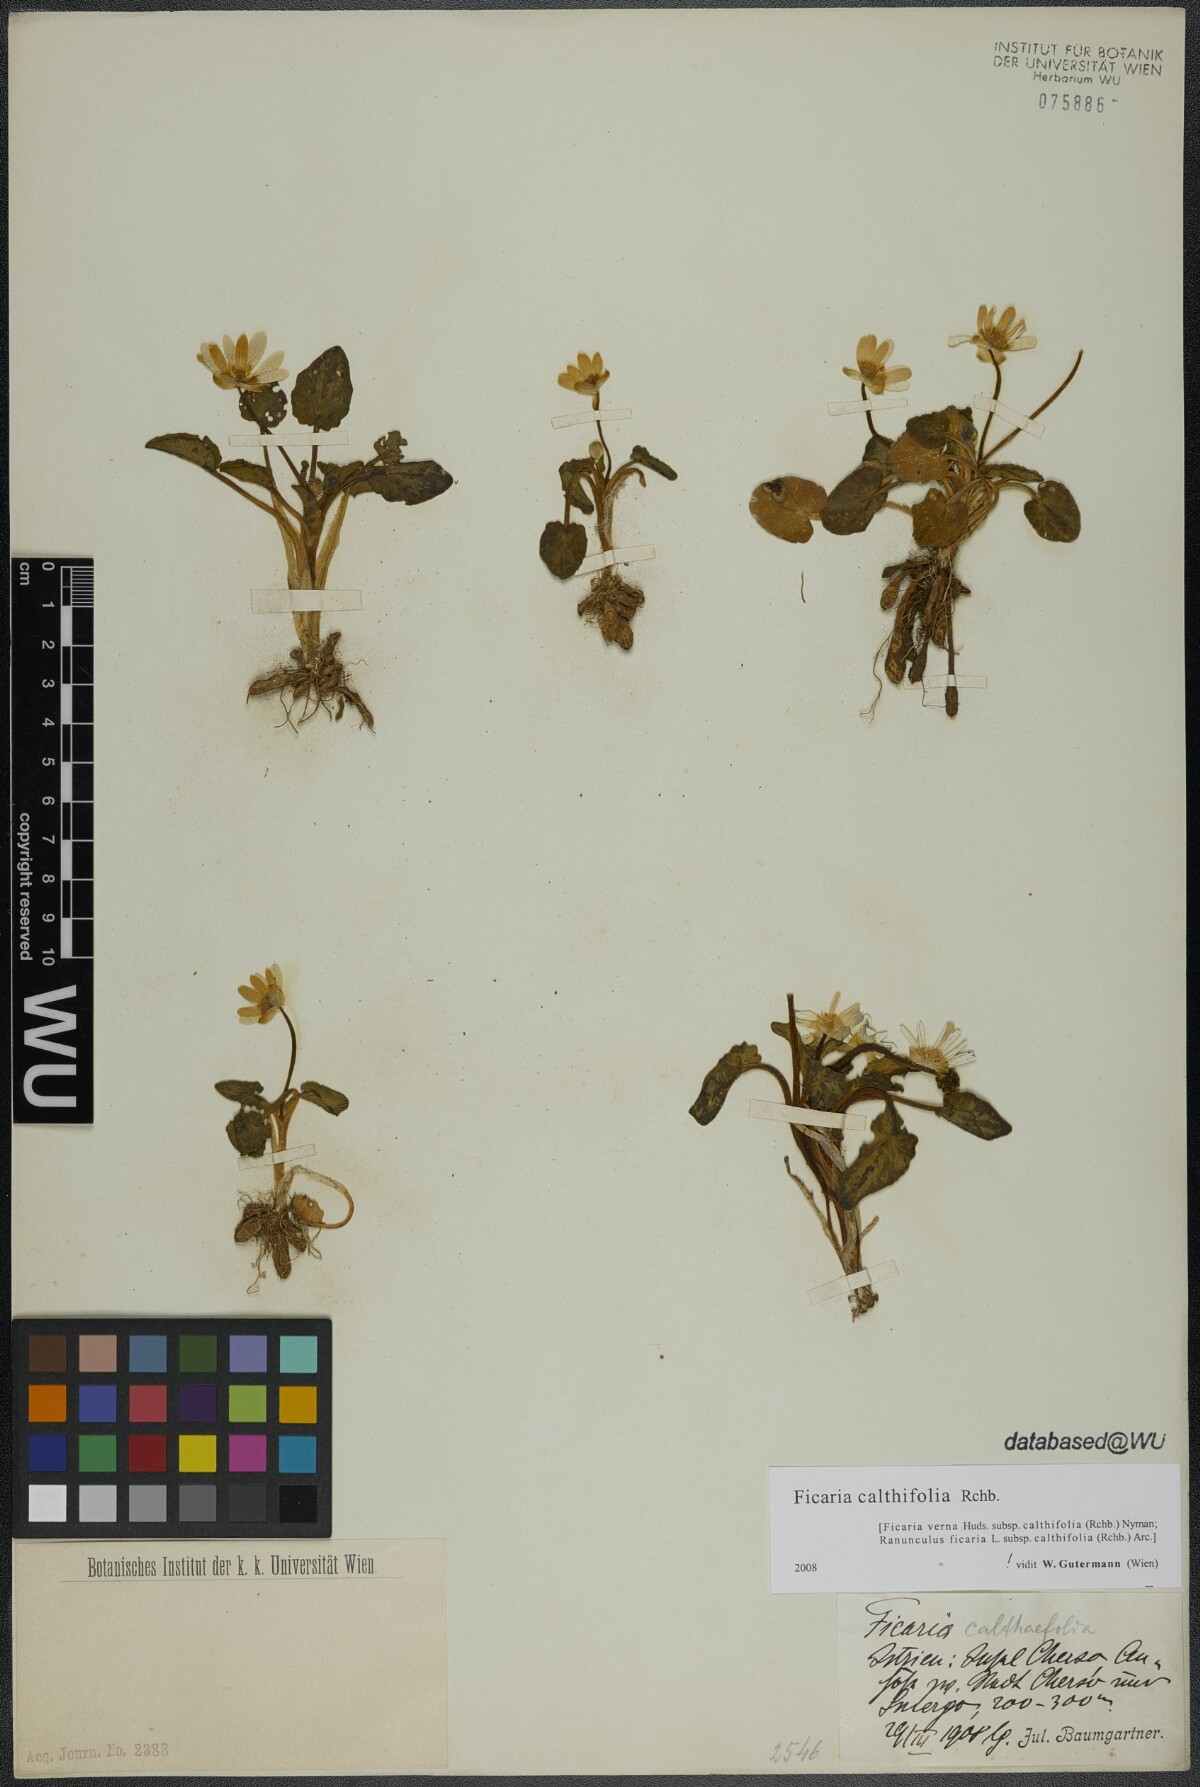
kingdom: Plantae
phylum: Tracheophyta
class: Magnoliopsida
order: Ranunculales
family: Ranunculaceae
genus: Ficaria
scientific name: Ficaria calthifolia
